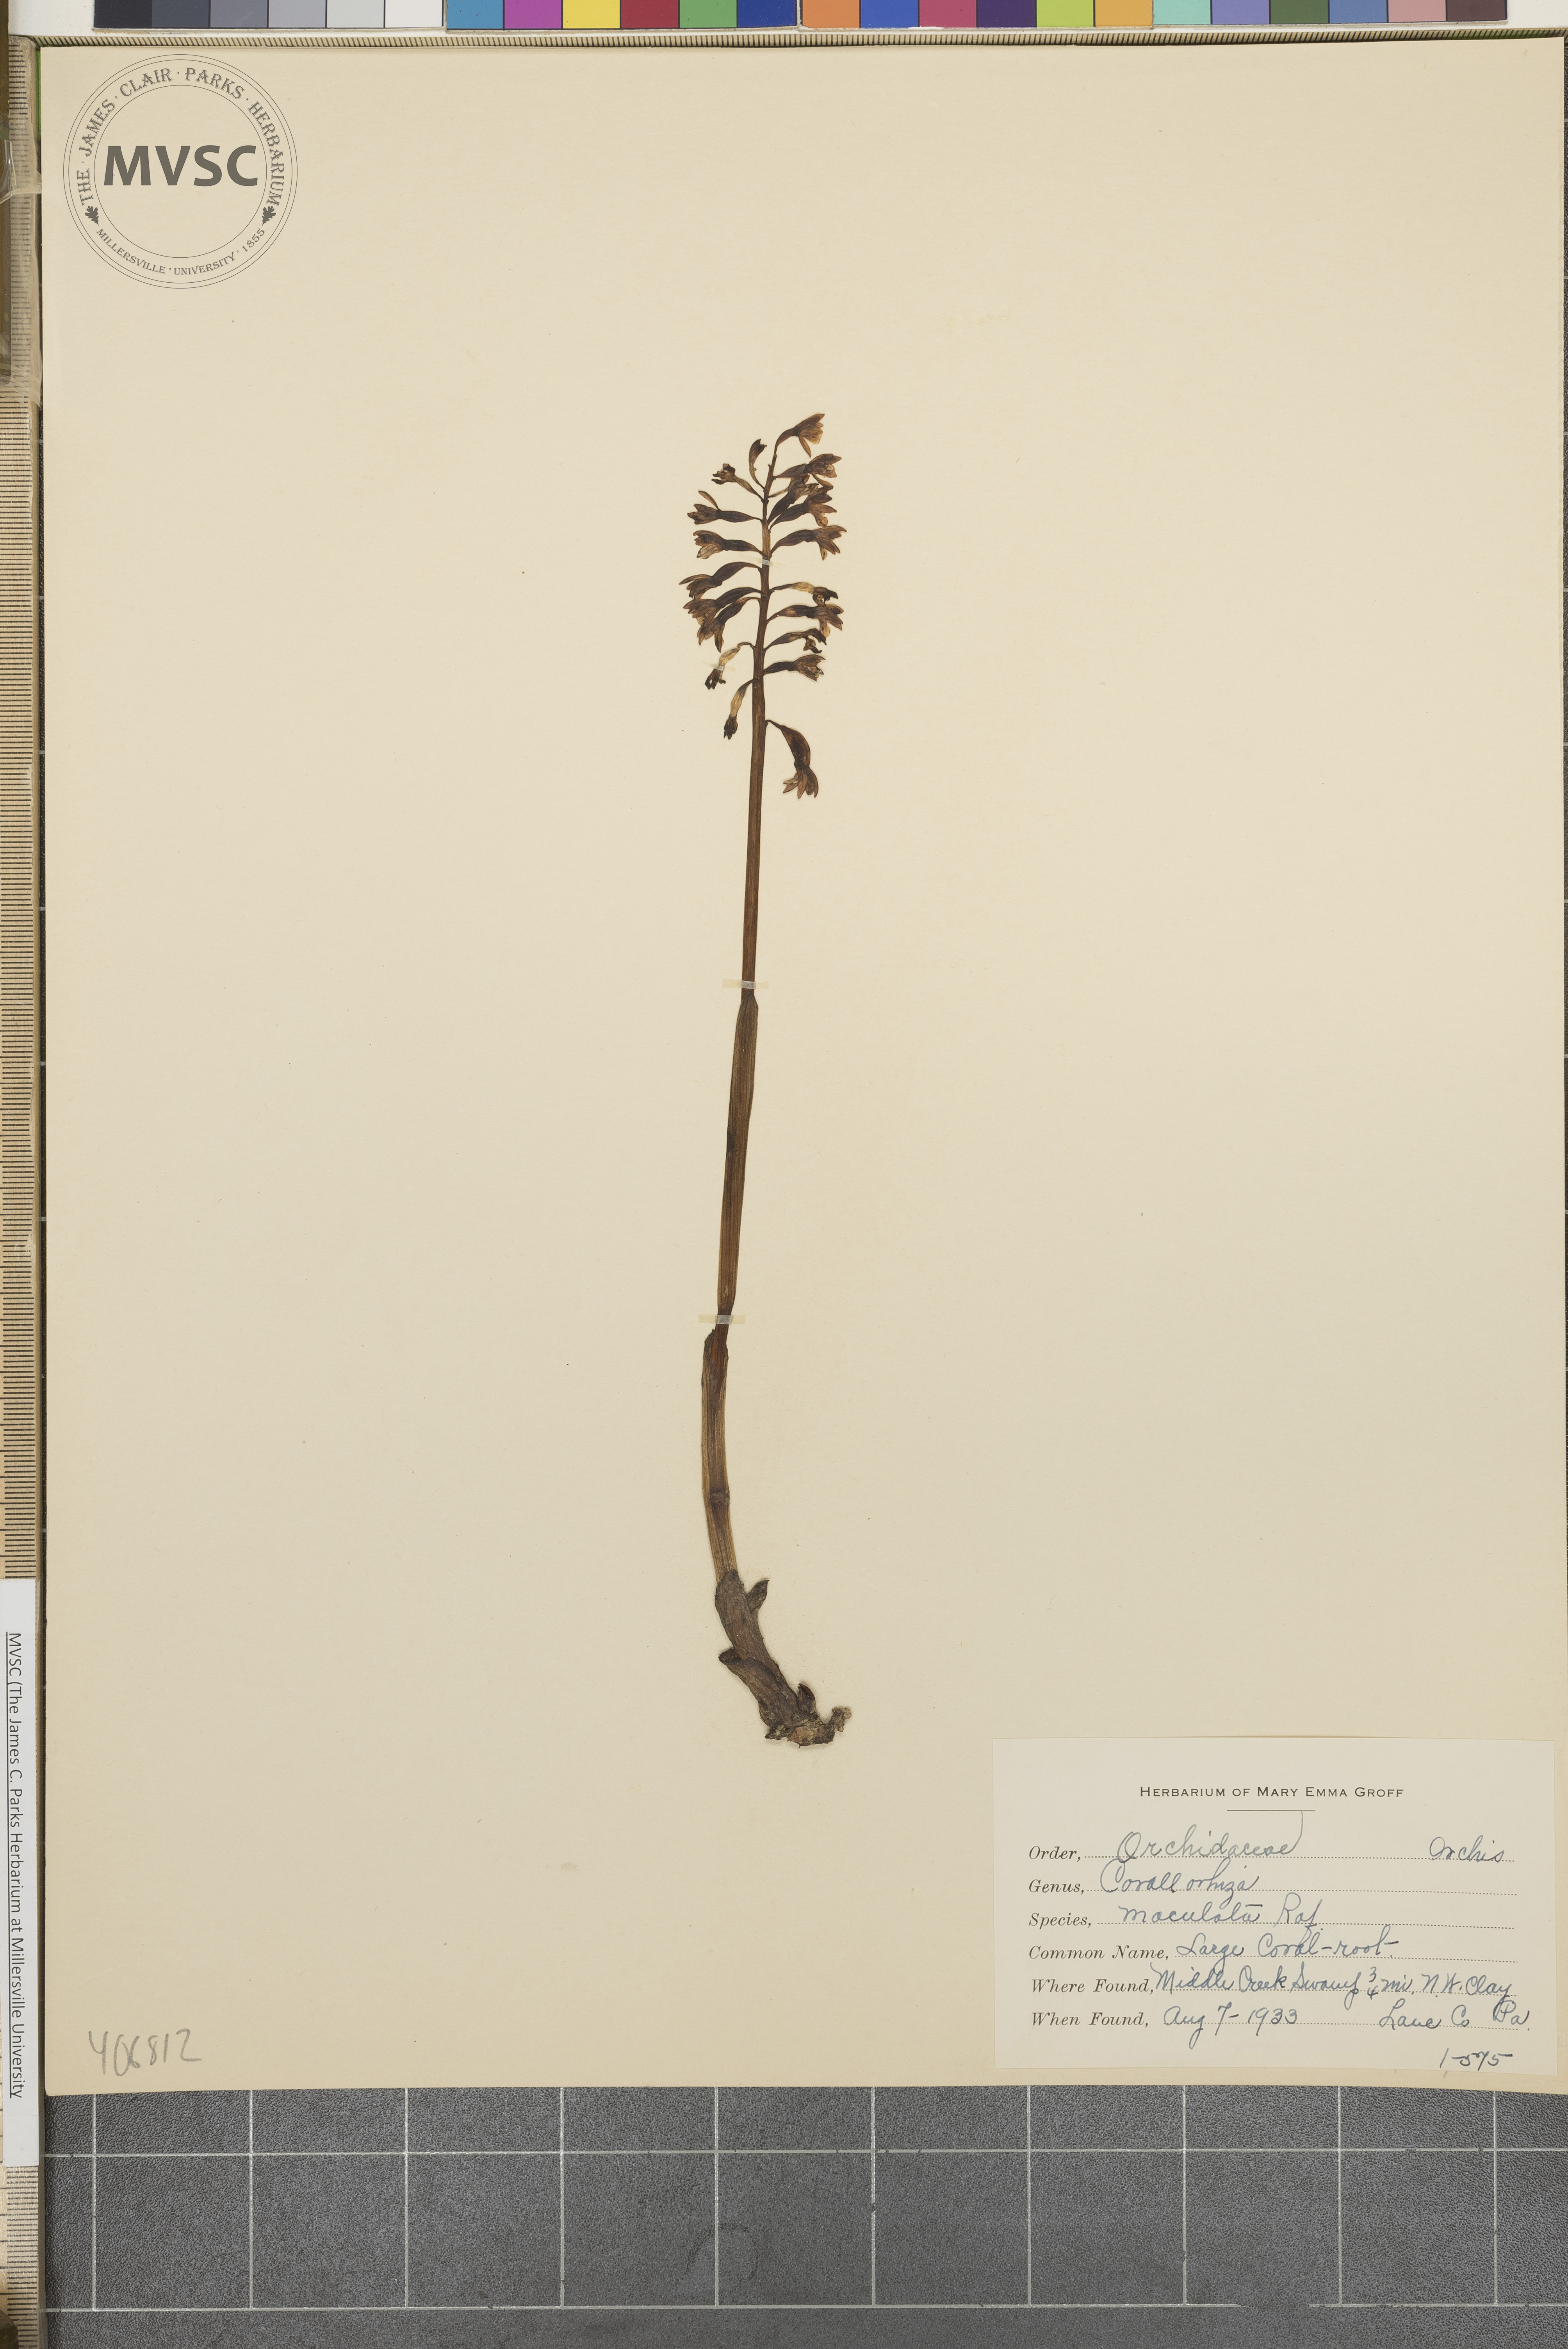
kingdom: Plantae
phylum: Tracheophyta
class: Liliopsida
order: Asparagales
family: Orchidaceae
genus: Corallorhiza
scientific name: Corallorhiza maculata
